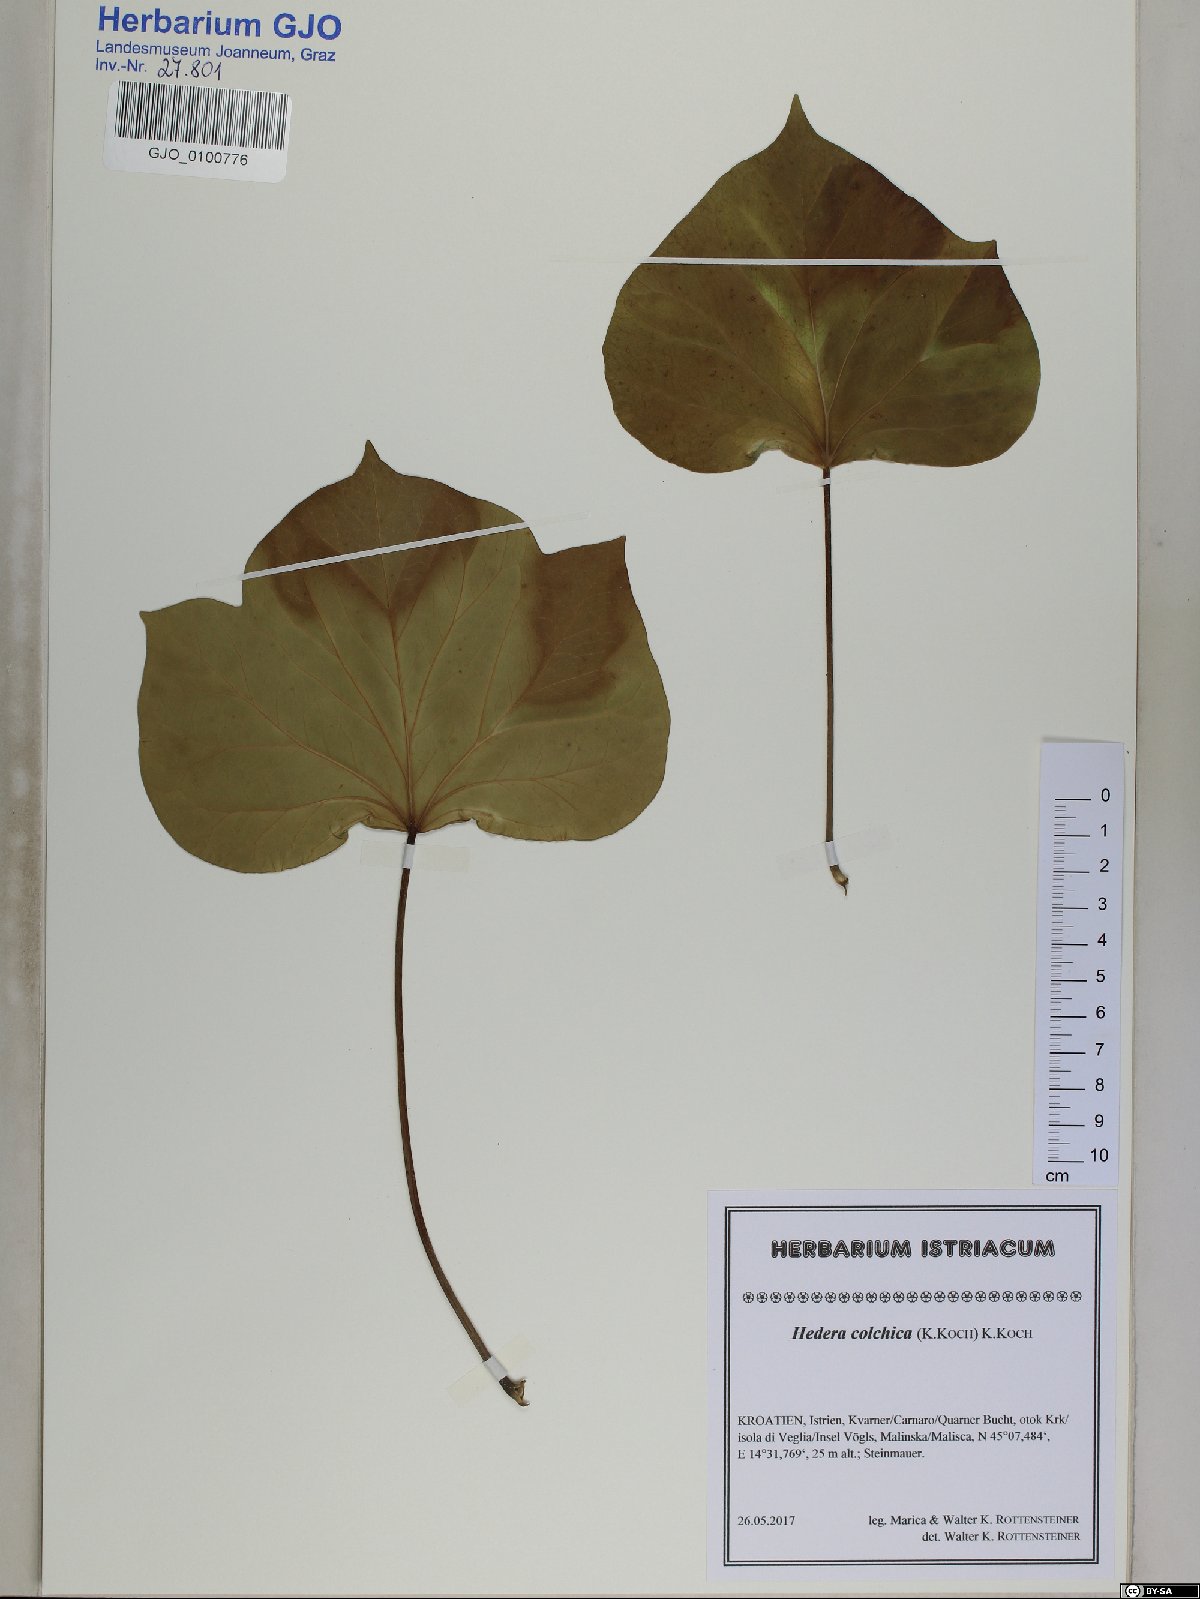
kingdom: Plantae
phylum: Tracheophyta
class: Magnoliopsida
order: Apiales
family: Araliaceae
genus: Hedera
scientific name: Hedera colchica
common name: Persian ivy
